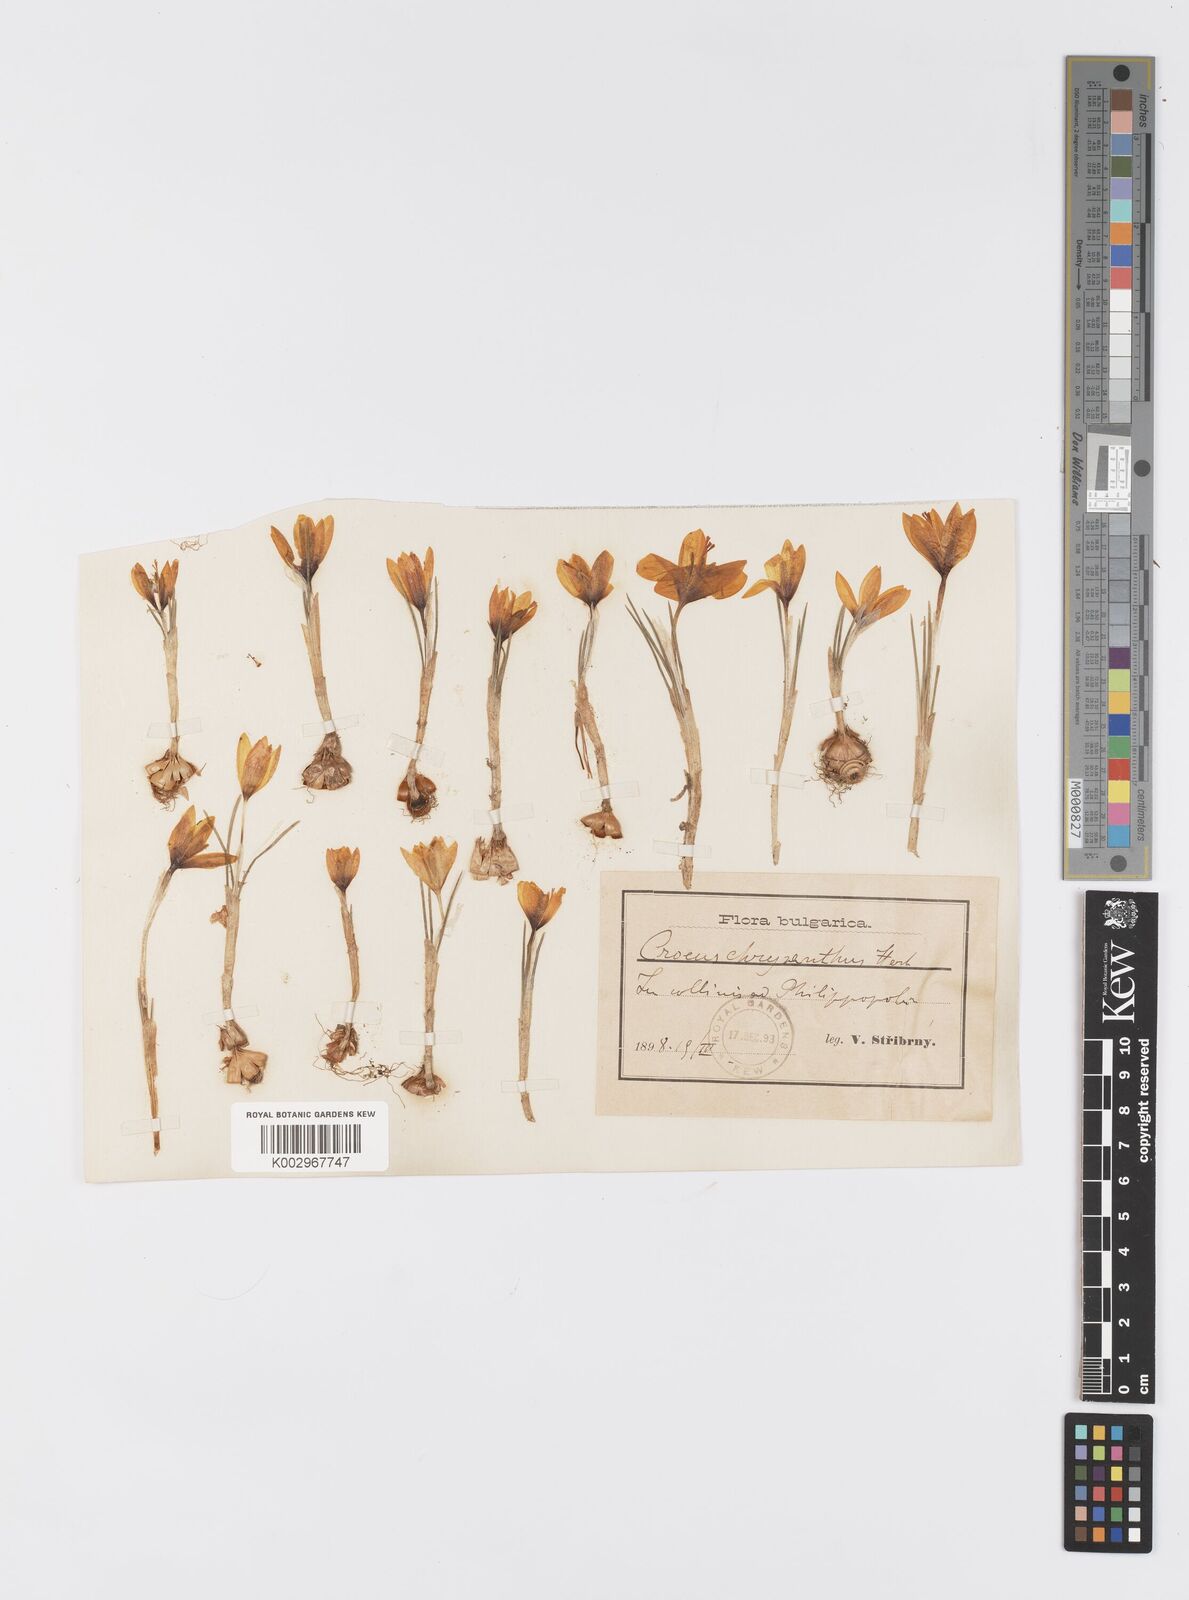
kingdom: Plantae
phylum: Tracheophyta
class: Liliopsida
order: Asparagales
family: Iridaceae
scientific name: Iridaceae
